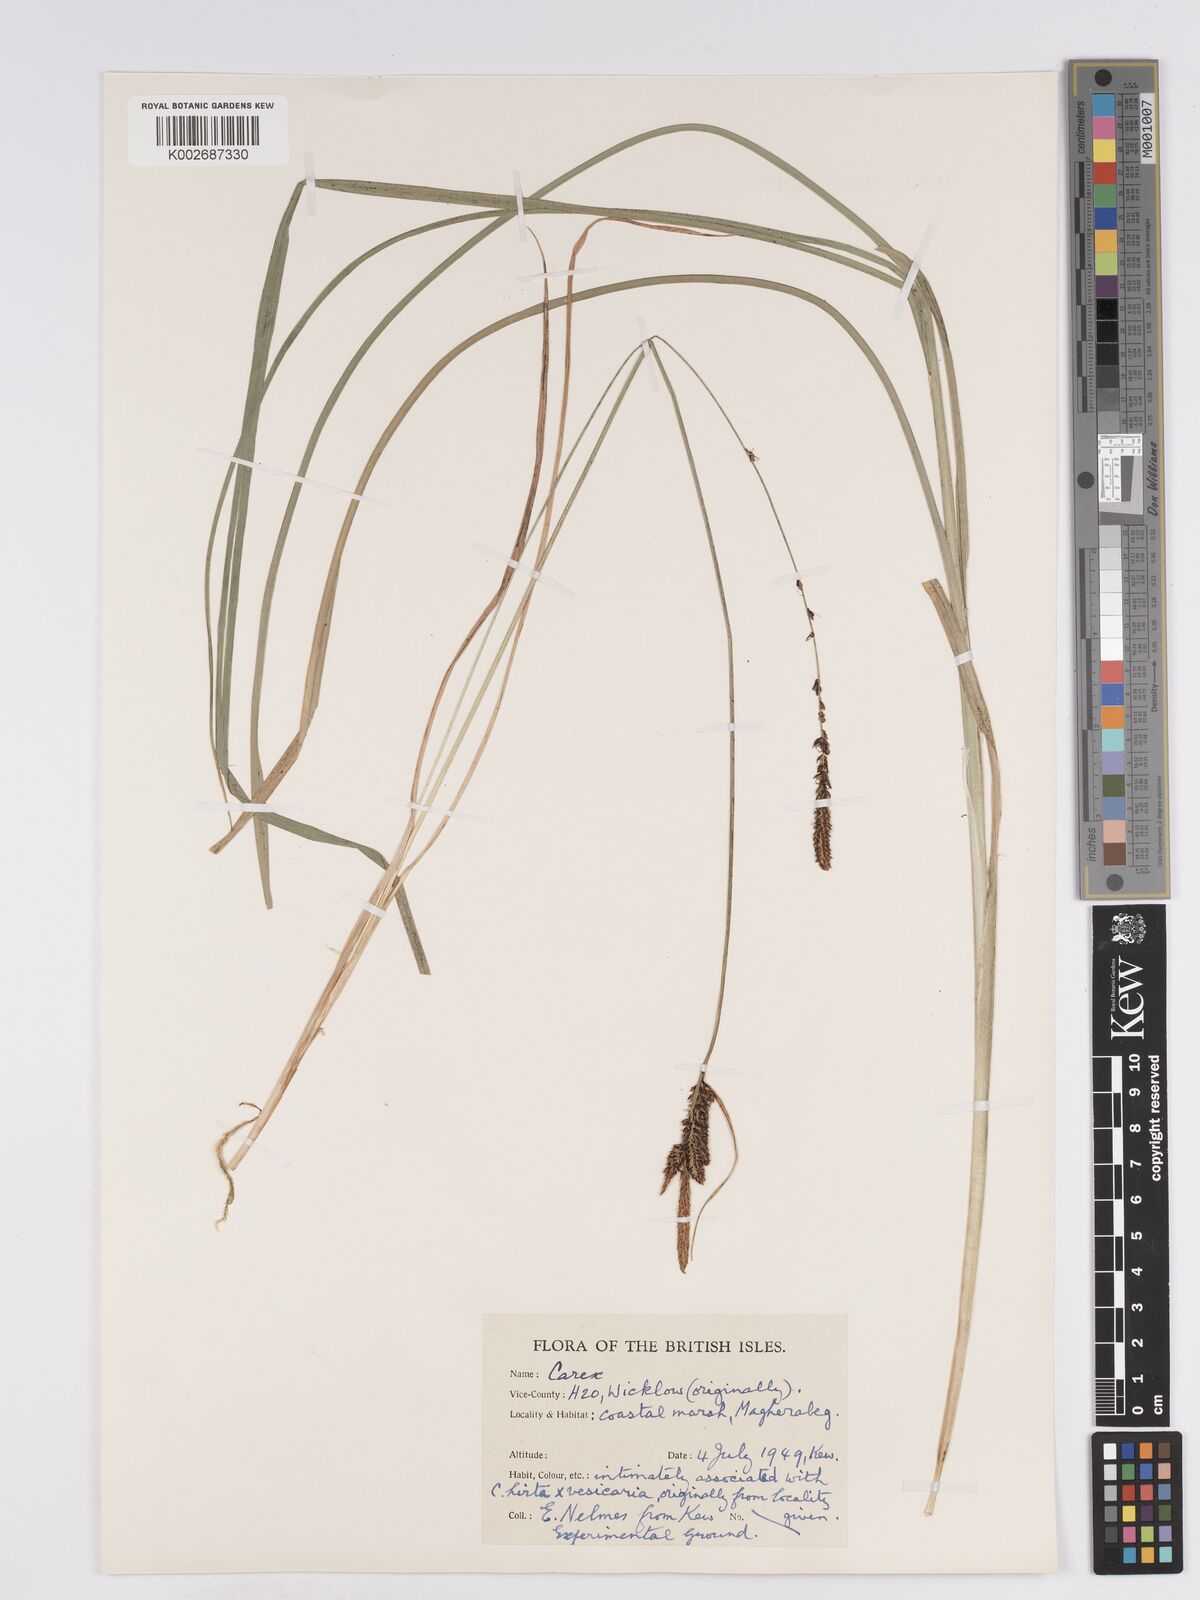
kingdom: Plantae
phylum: Tracheophyta
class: Liliopsida
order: Poales
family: Cyperaceae
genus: Carex
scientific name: Carex nigra
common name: Common sedge
